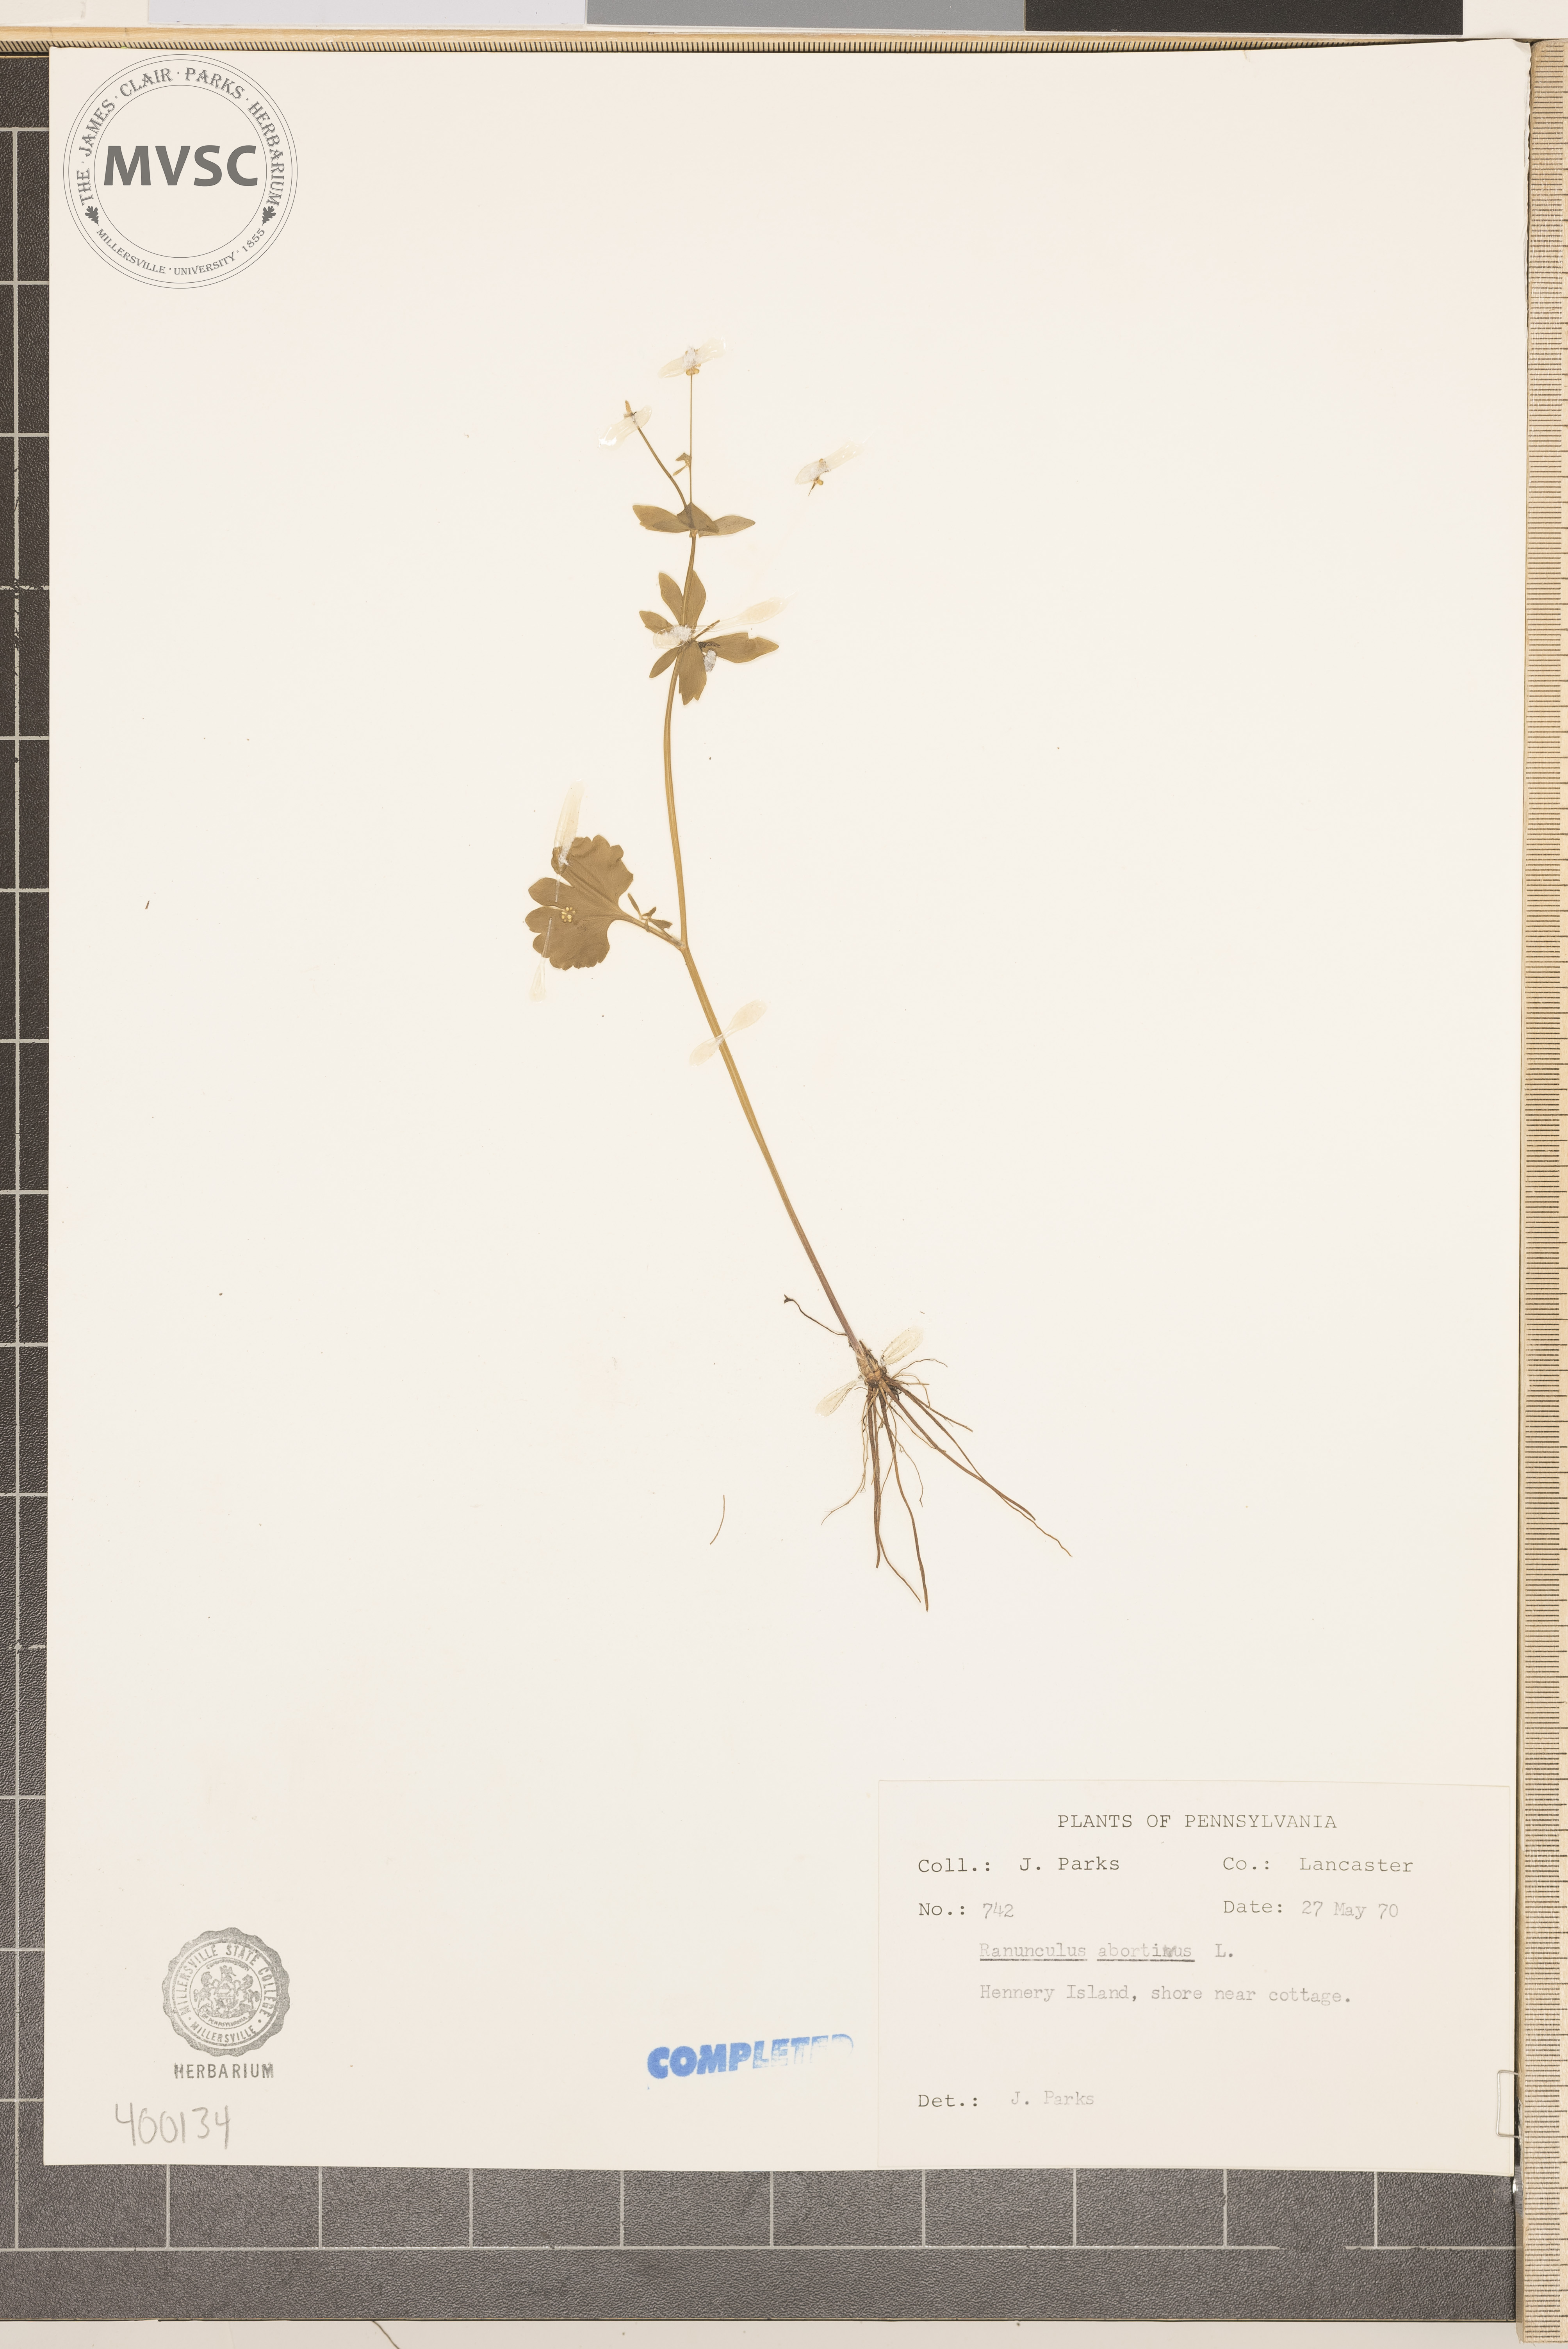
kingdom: Plantae
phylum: Tracheophyta
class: Magnoliopsida
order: Ranunculales
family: Ranunculaceae
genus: Ranunculus
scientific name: Ranunculus abortivus
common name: buttercup
